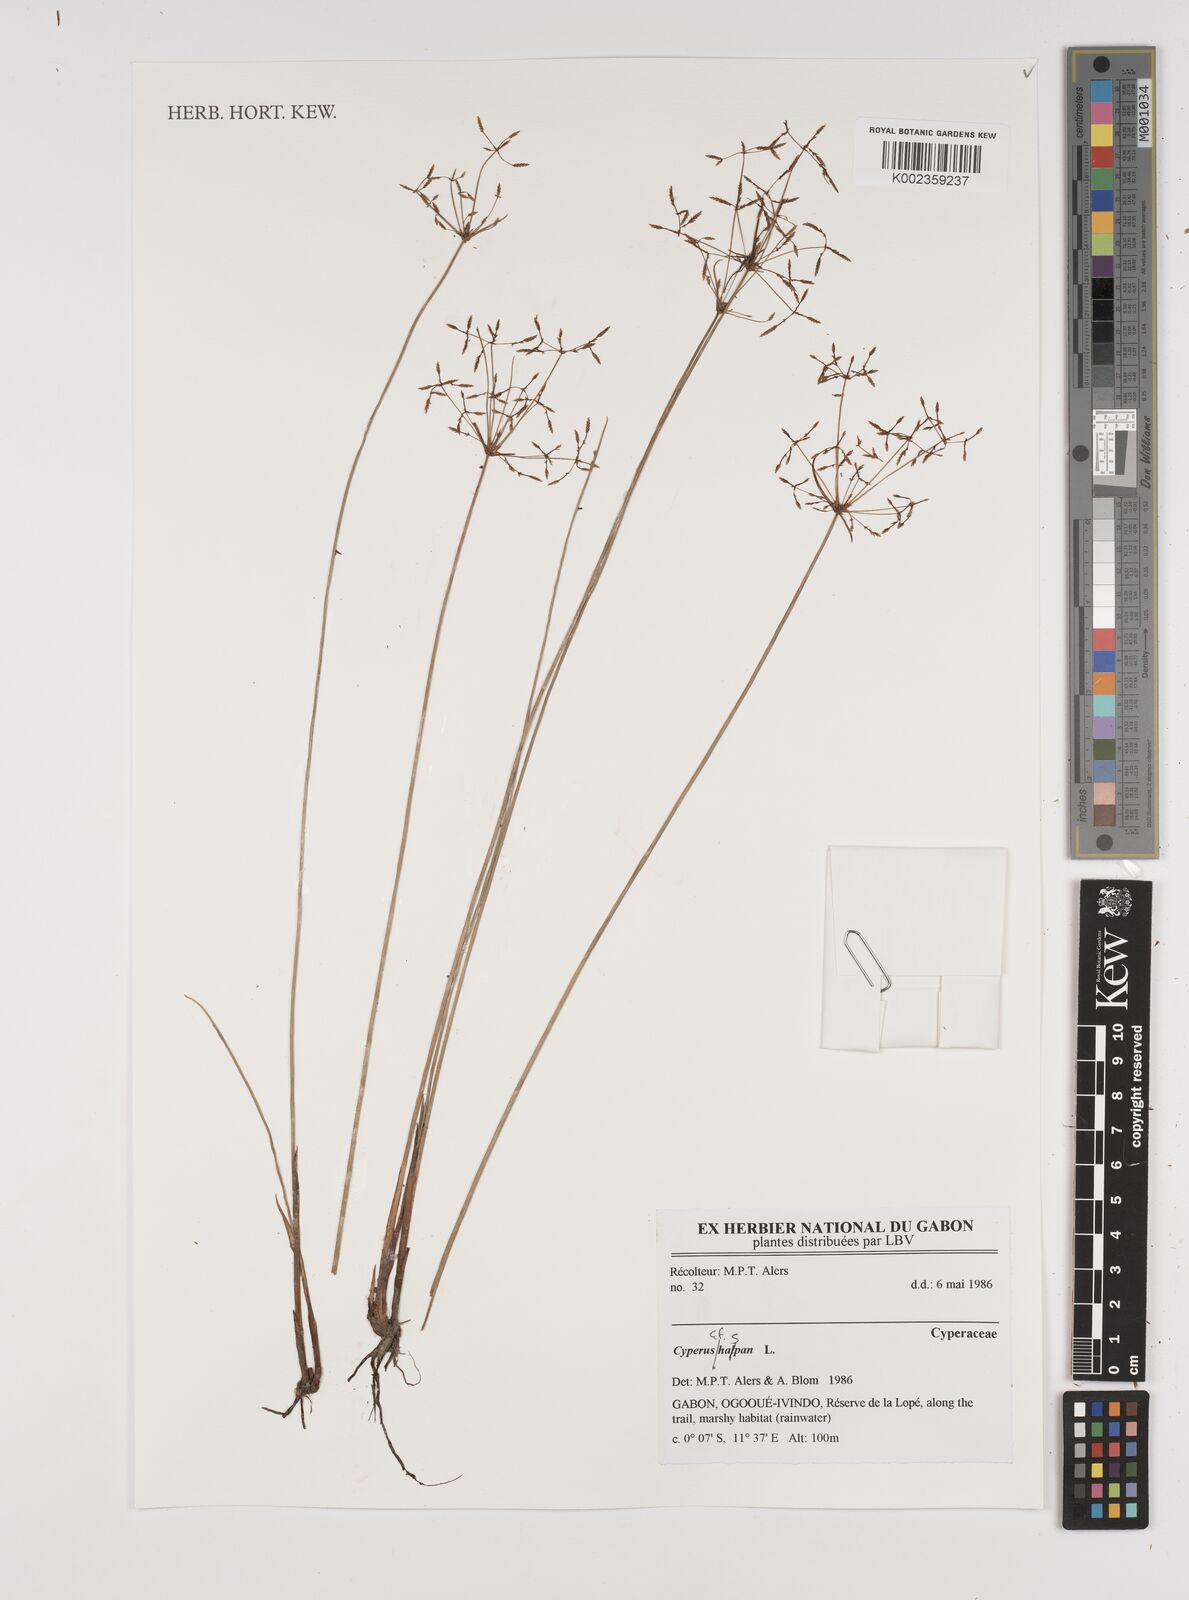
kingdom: Plantae
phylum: Tracheophyta
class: Liliopsida
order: Poales
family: Cyperaceae
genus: Cyperus
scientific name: Cyperus haspan
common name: Haspan flatsedge
